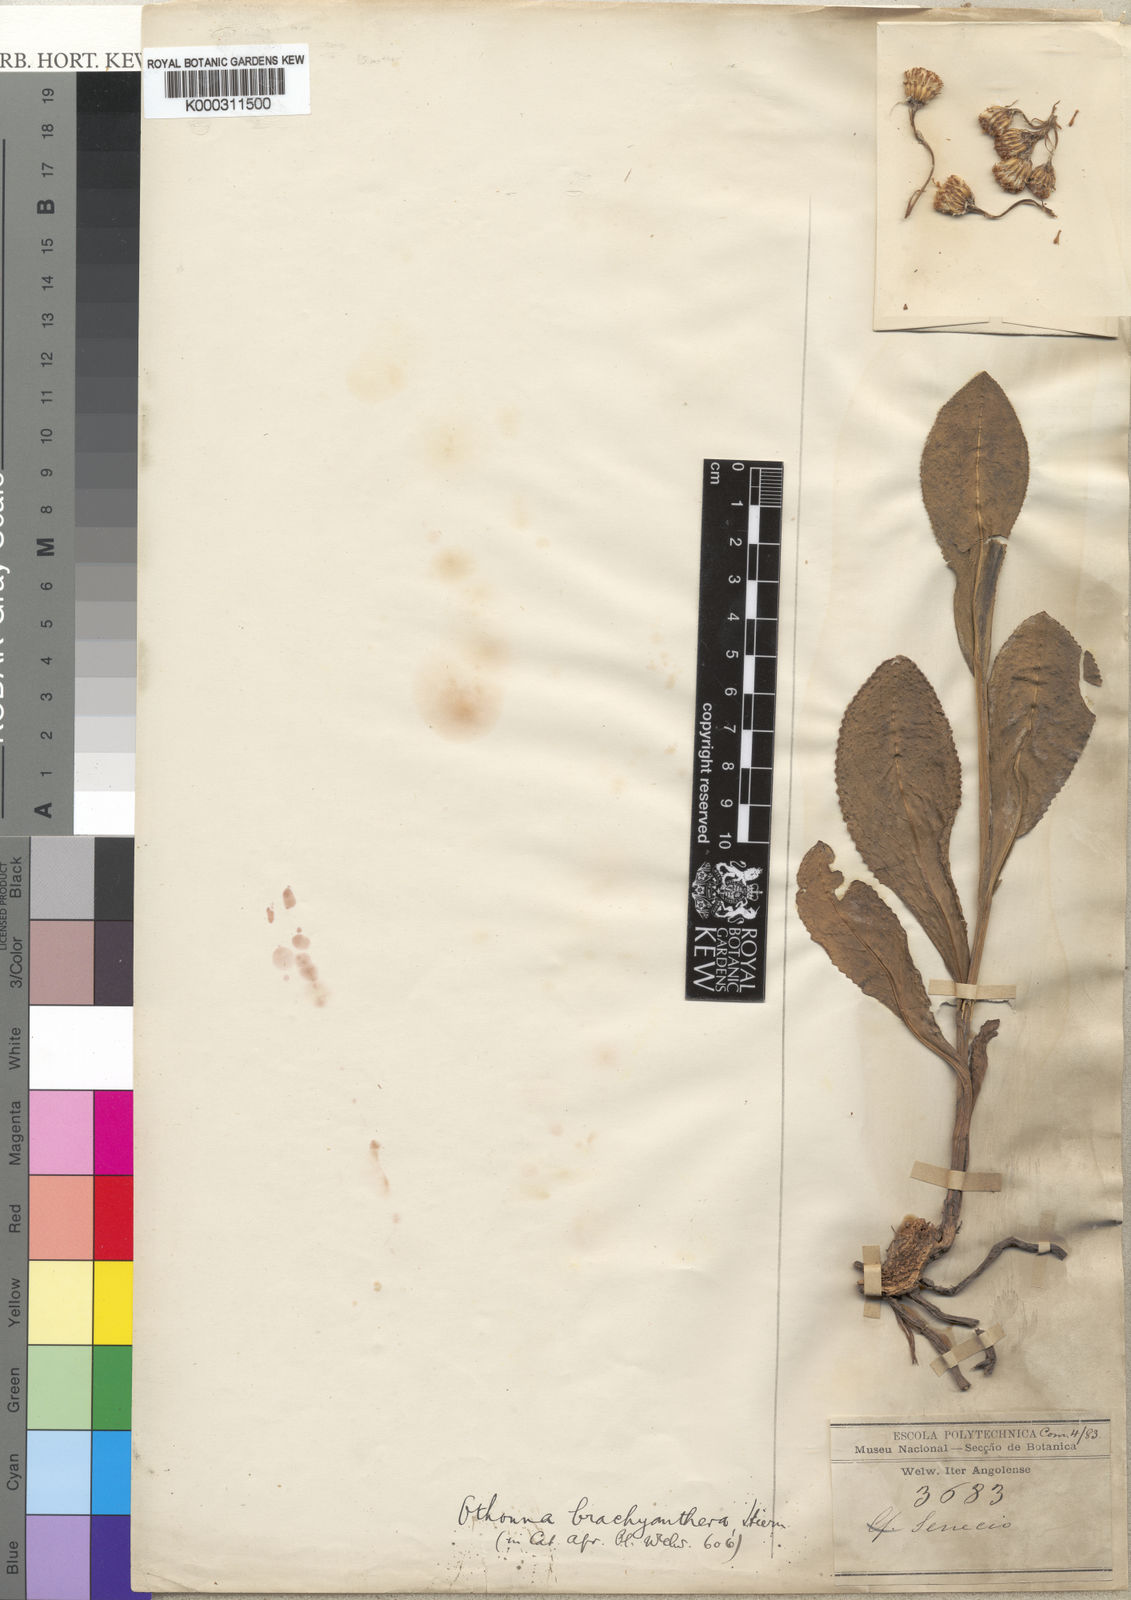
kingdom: Plantae
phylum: Tracheophyta
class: Magnoliopsida
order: Asterales
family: Asteraceae
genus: Senecio
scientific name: Senecio brachyantherus
